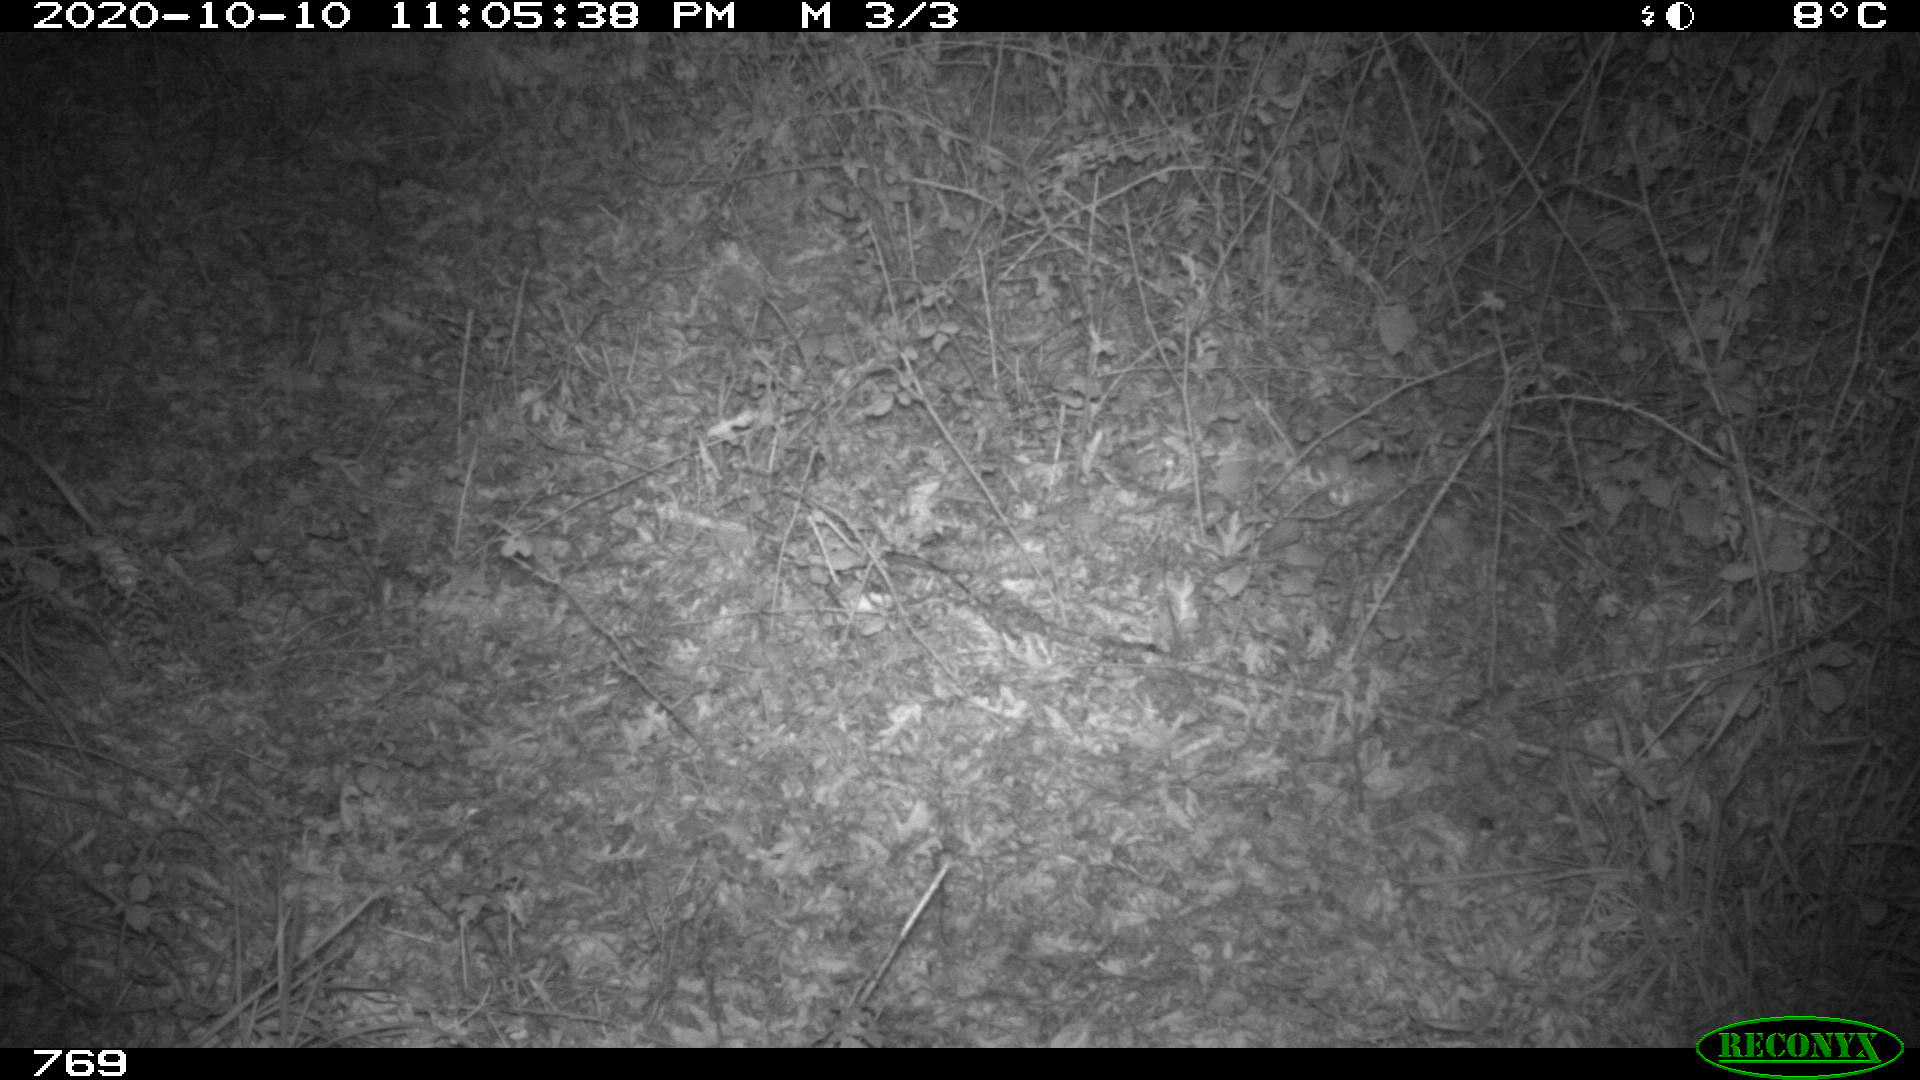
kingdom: Animalia
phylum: Chordata
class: Mammalia
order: Carnivora
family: Canidae
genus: Vulpes
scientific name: Vulpes vulpes
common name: Red fox
